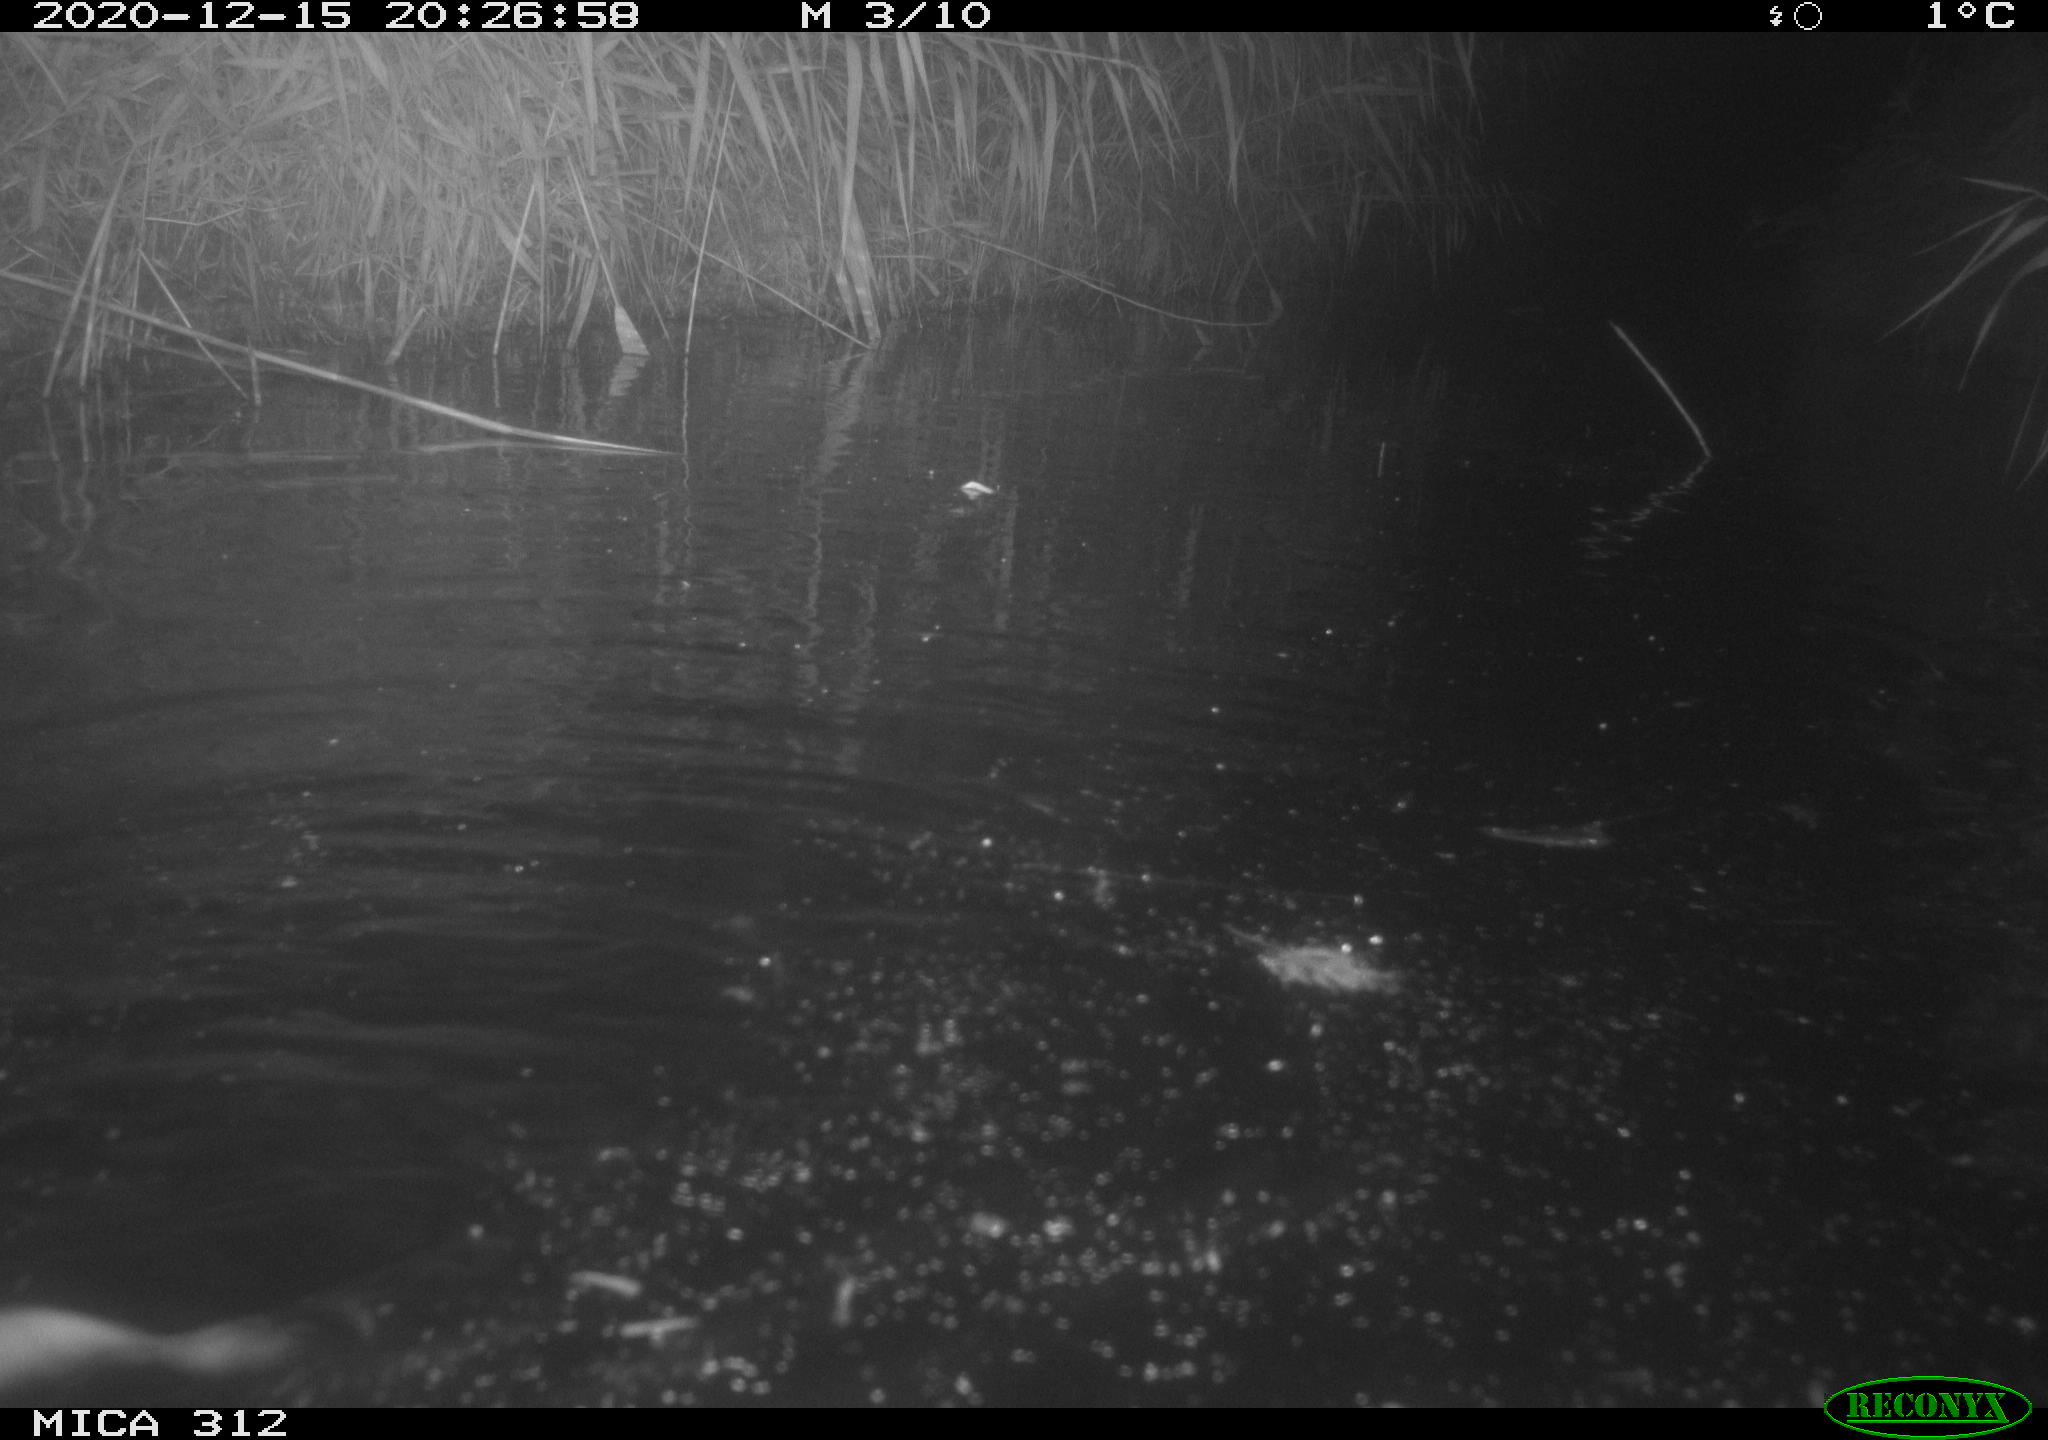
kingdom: Animalia
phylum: Chordata
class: Mammalia
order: Rodentia
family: Cricetidae
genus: Ondatra
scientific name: Ondatra zibethicus
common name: Muskrat
